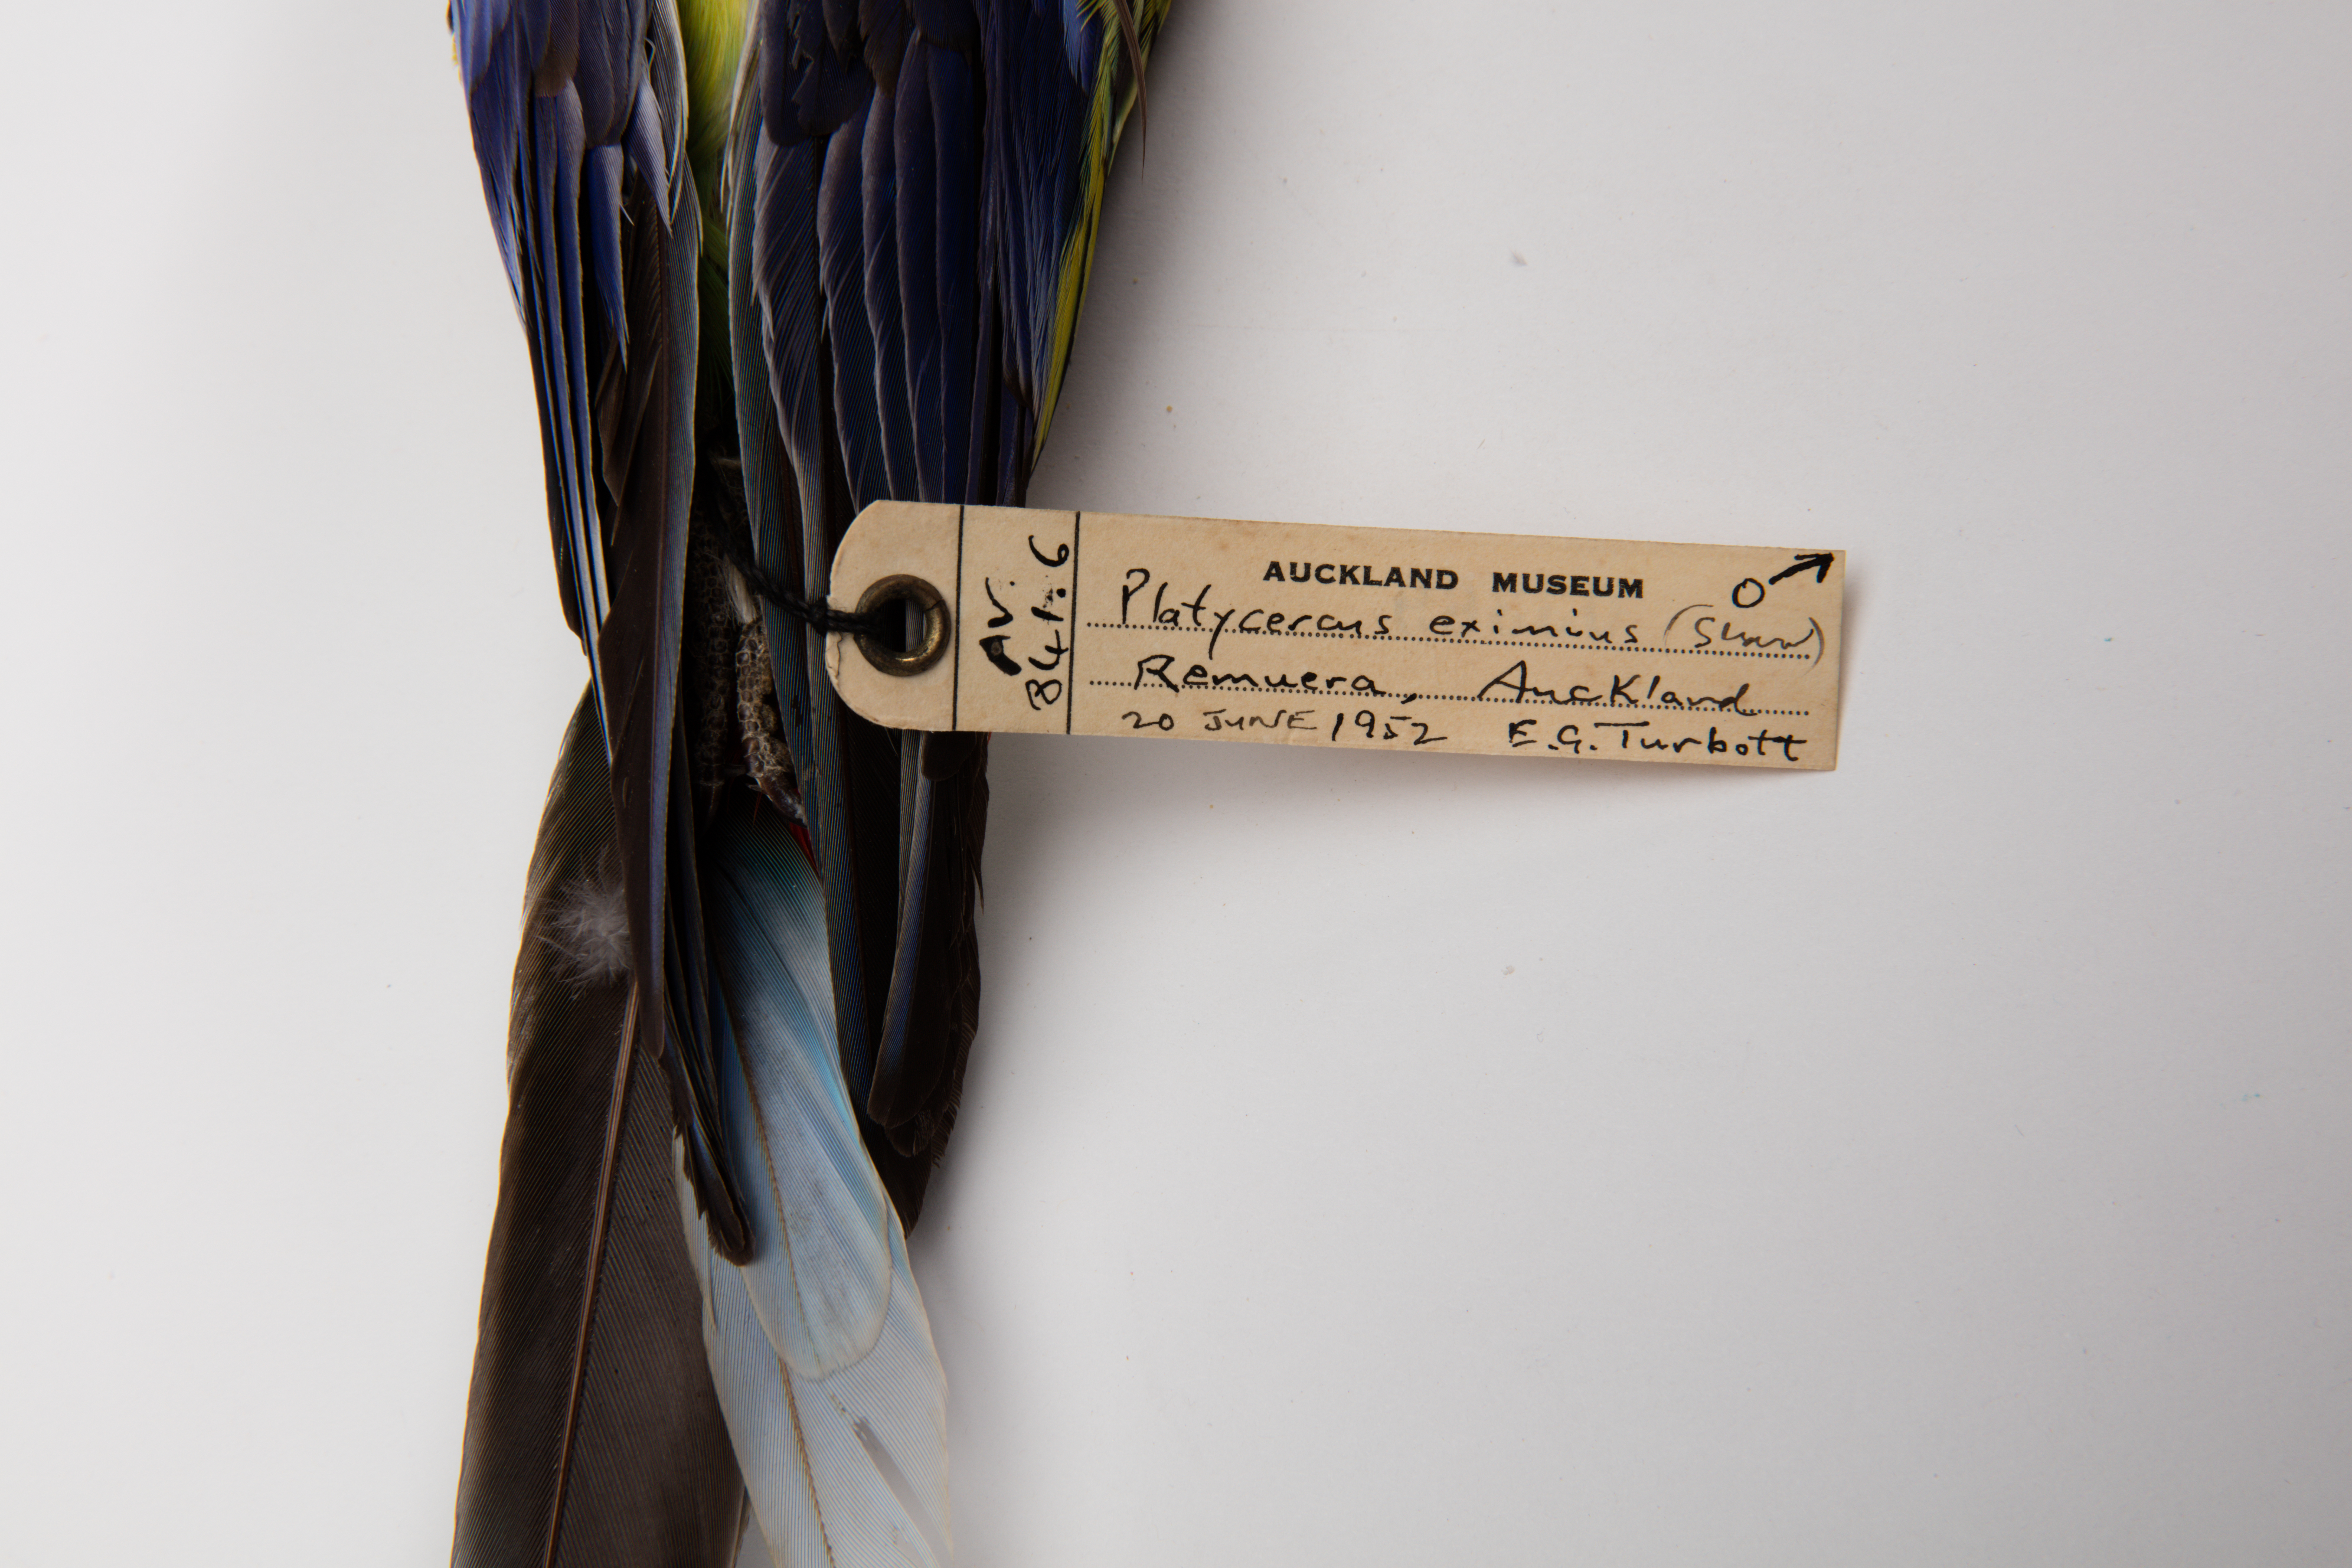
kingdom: Animalia
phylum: Chordata
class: Aves
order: Psittaciformes
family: Psittacidae
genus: Platycercus
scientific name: Platycercus eximius
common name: Eastern rosella
